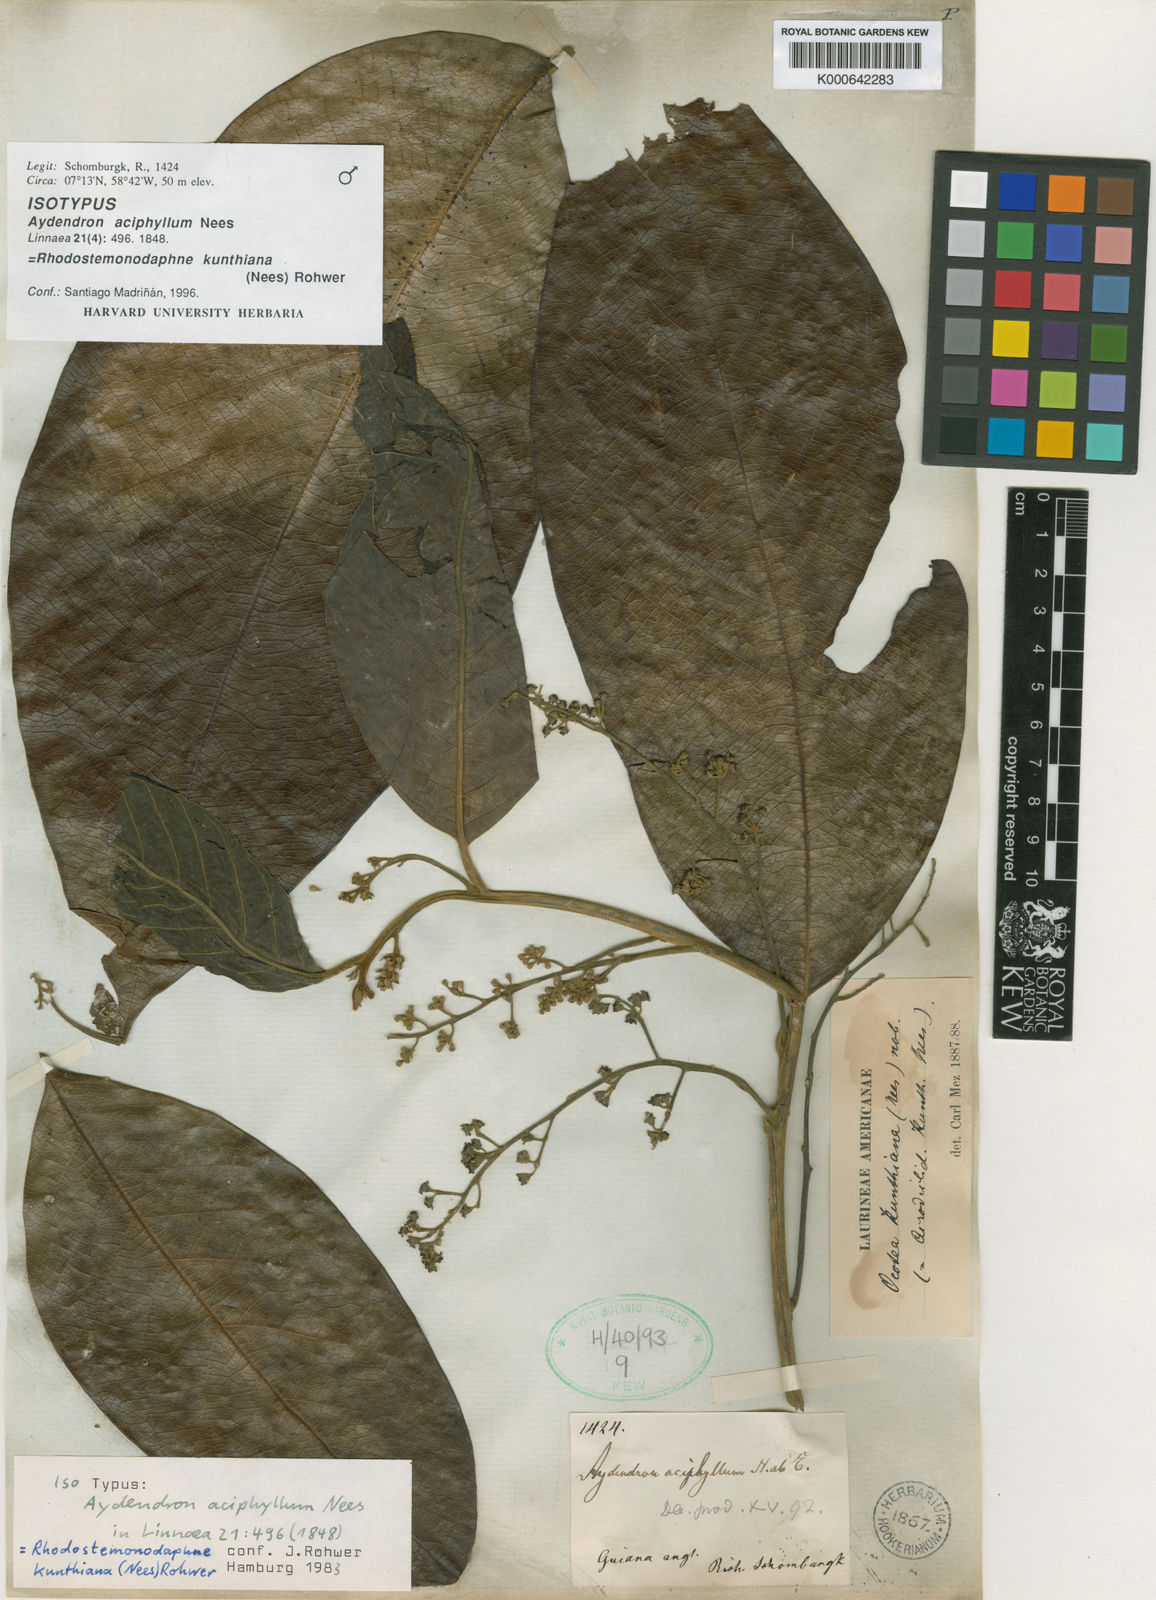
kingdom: Plantae
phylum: Tracheophyta
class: Magnoliopsida
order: Laurales
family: Lauraceae
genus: Rhodostemonodaphne
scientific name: Rhodostemonodaphne kunthiana
